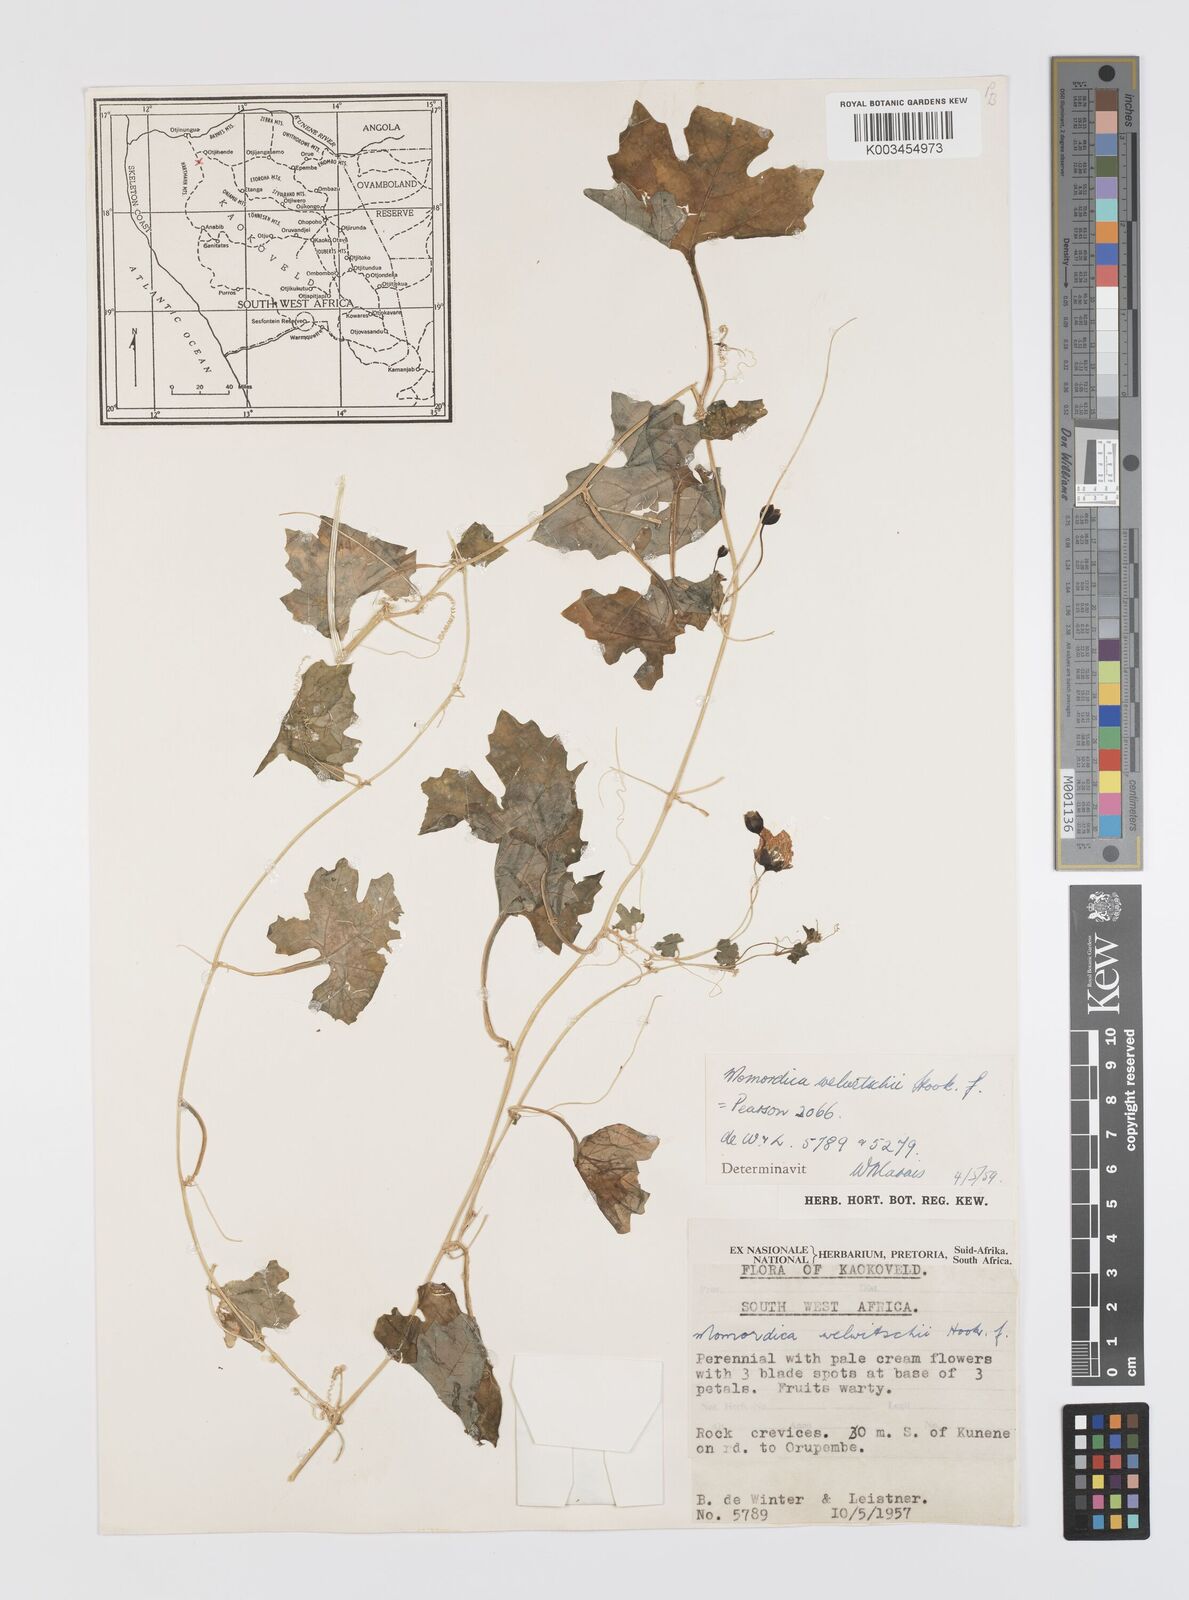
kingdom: Plantae
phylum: Tracheophyta
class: Magnoliopsida
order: Cucurbitales
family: Cucurbitaceae
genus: Momordica
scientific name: Momordica welwitschii
